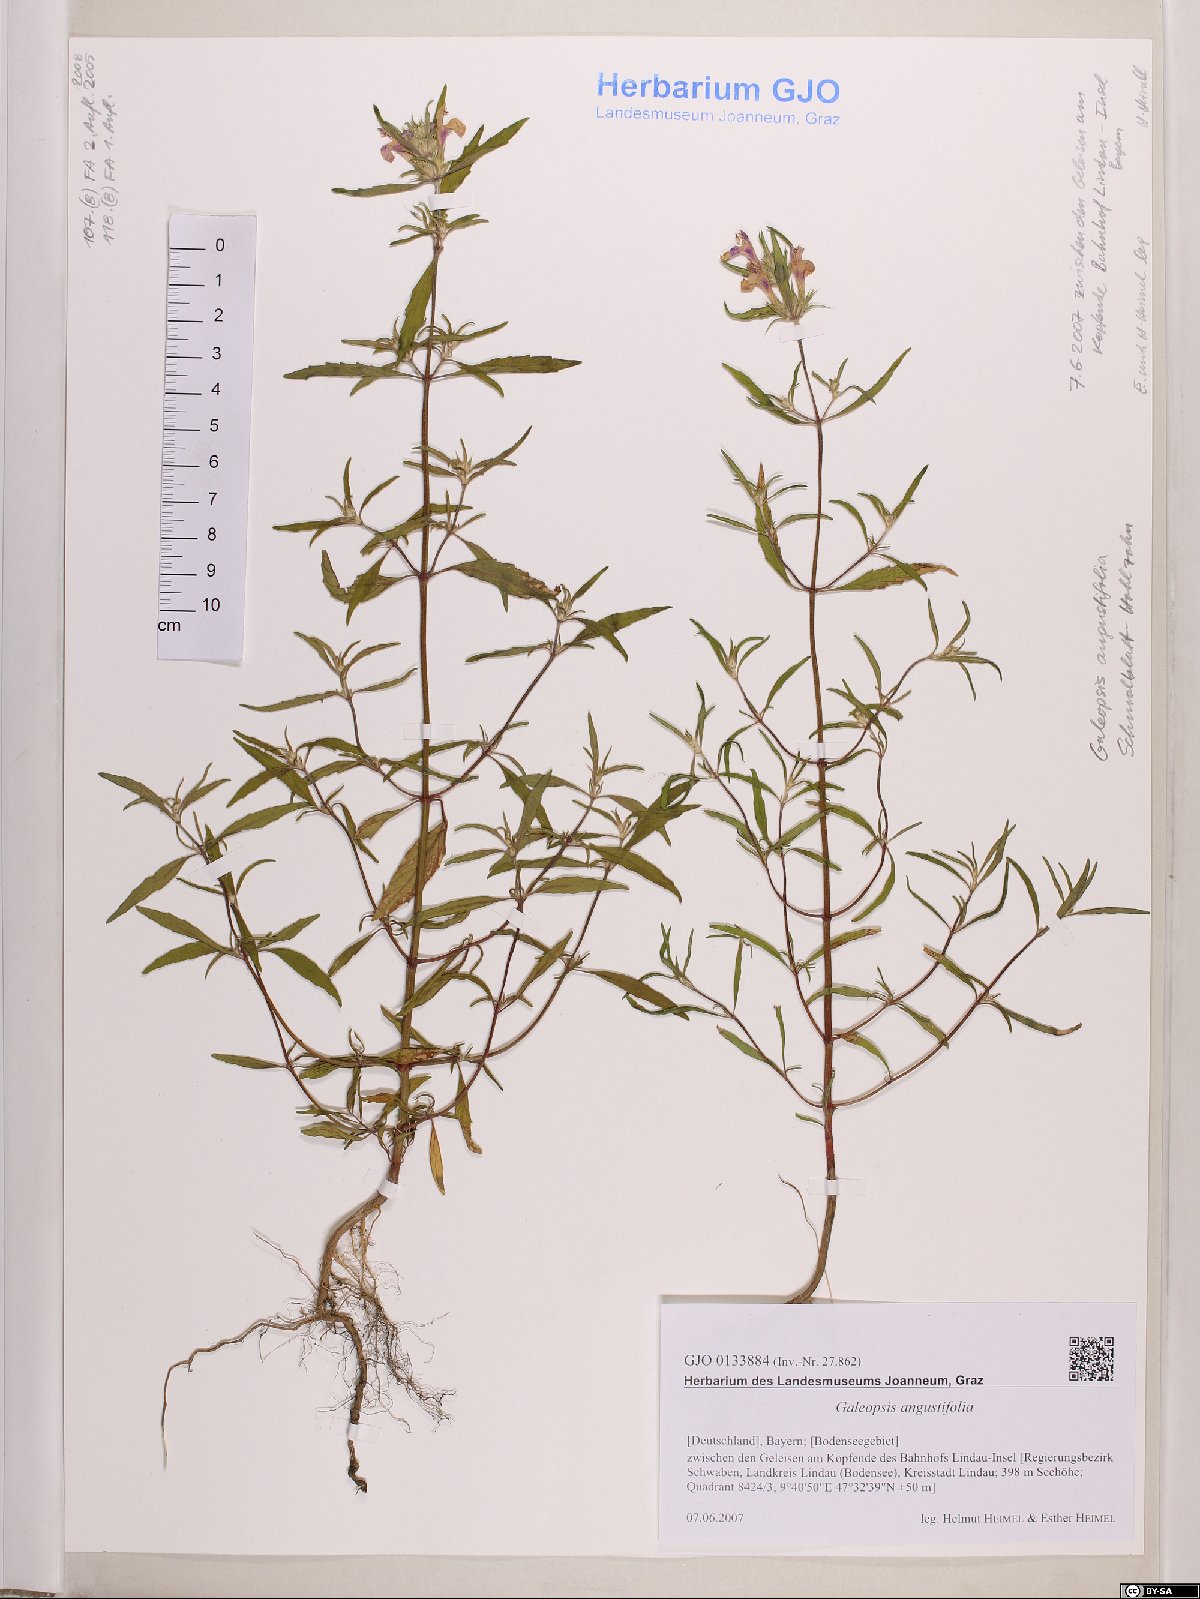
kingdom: Plantae
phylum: Tracheophyta
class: Magnoliopsida
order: Lamiales
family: Lamiaceae
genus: Galeopsis
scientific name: Galeopsis angustifolia
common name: Red hemp-nettle
